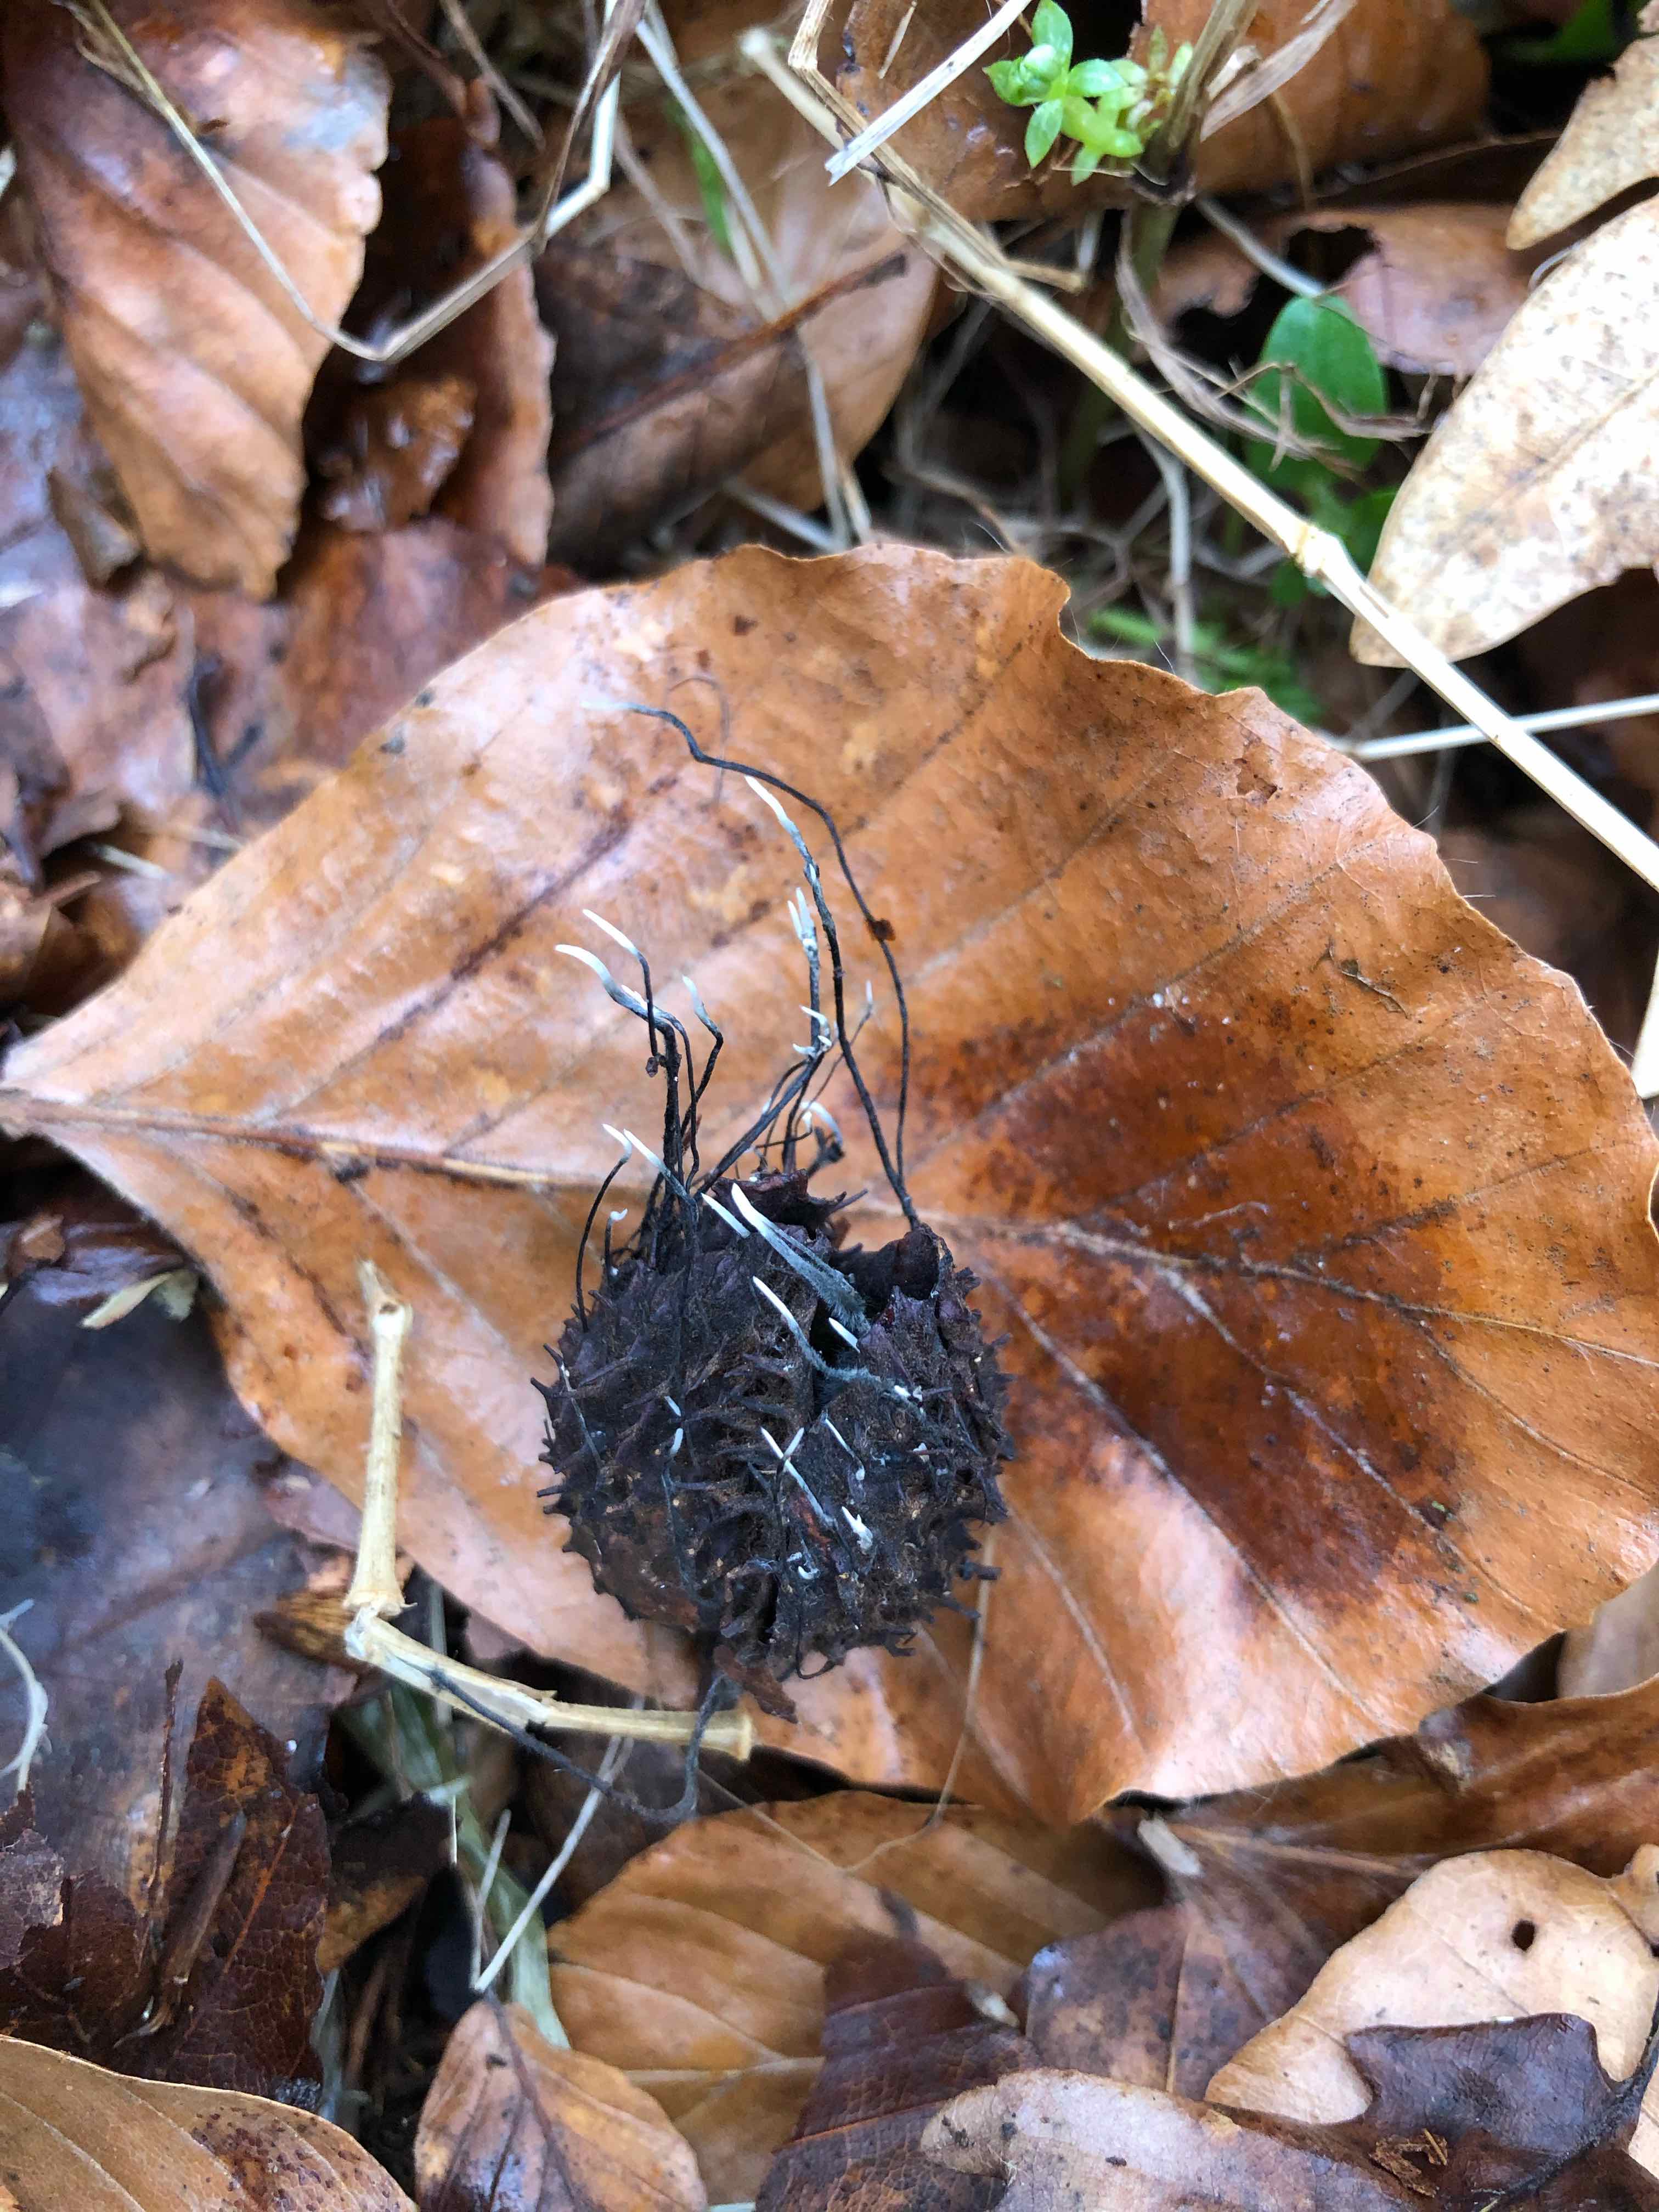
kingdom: Fungi
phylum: Ascomycota
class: Sordariomycetes
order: Xylariales
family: Xylariaceae
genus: Xylaria
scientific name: Xylaria carpophila
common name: bogskål-stødsvamp
